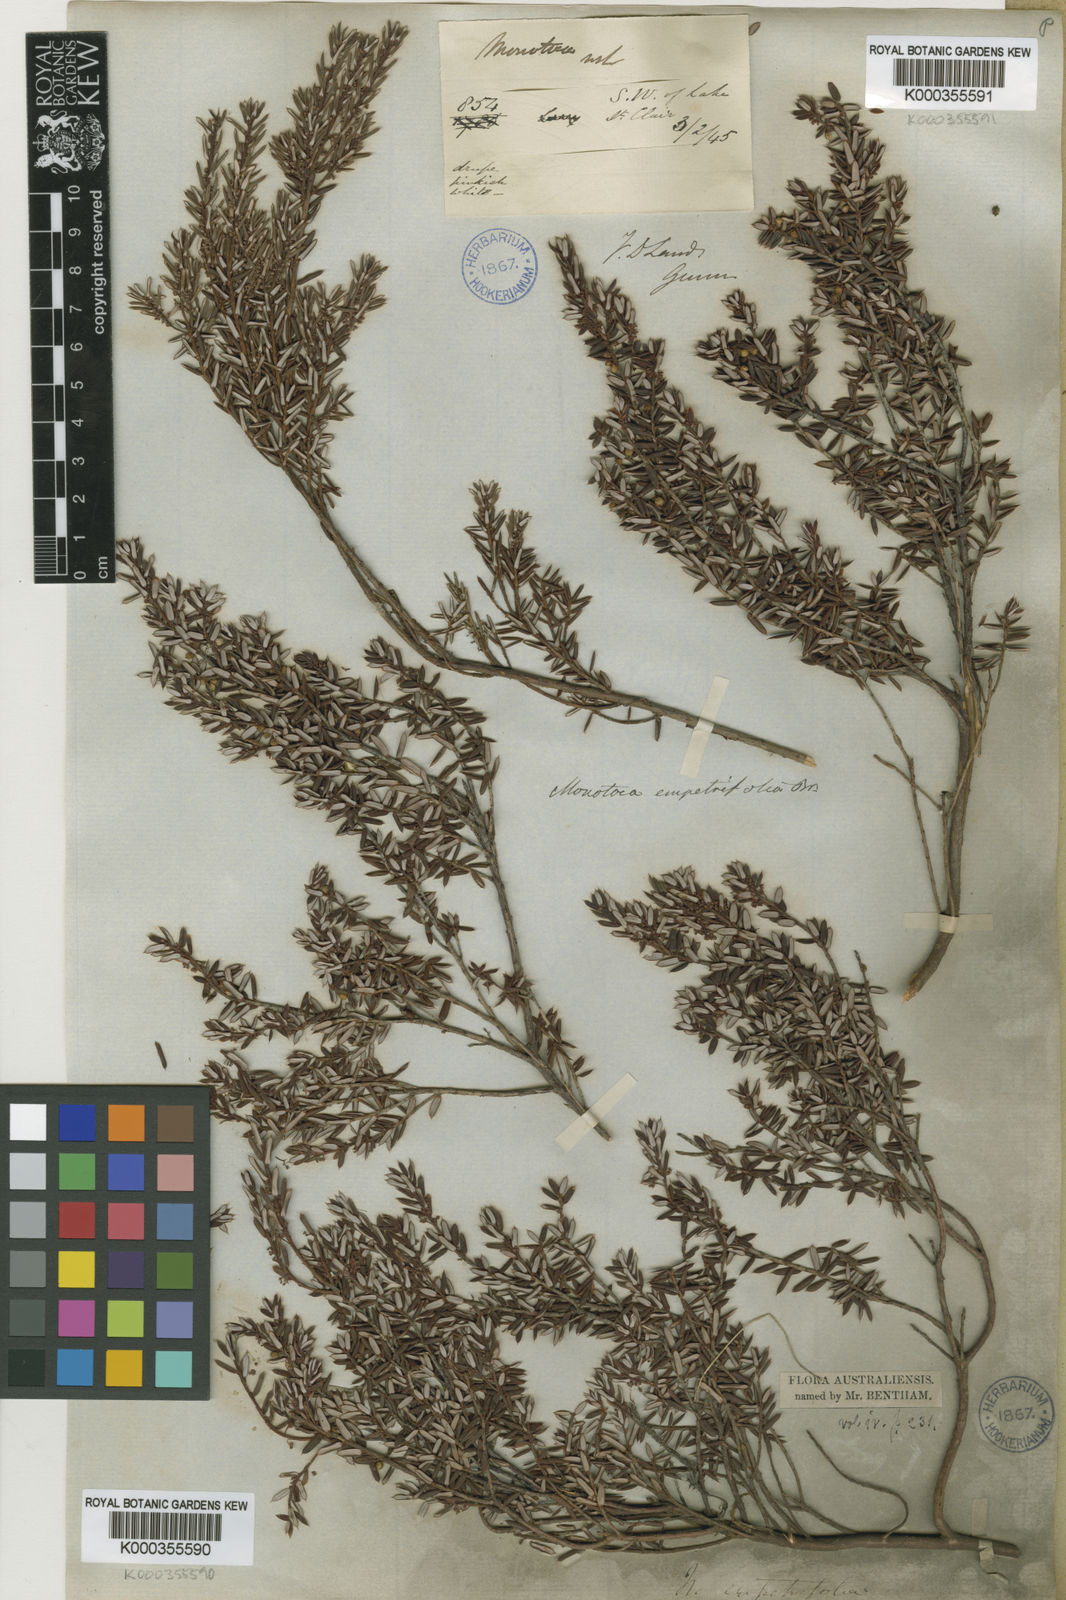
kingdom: Plantae
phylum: Tracheophyta
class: Magnoliopsida
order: Ericales
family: Ericaceae
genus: Monotoca
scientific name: Monotoca empetrifolia
